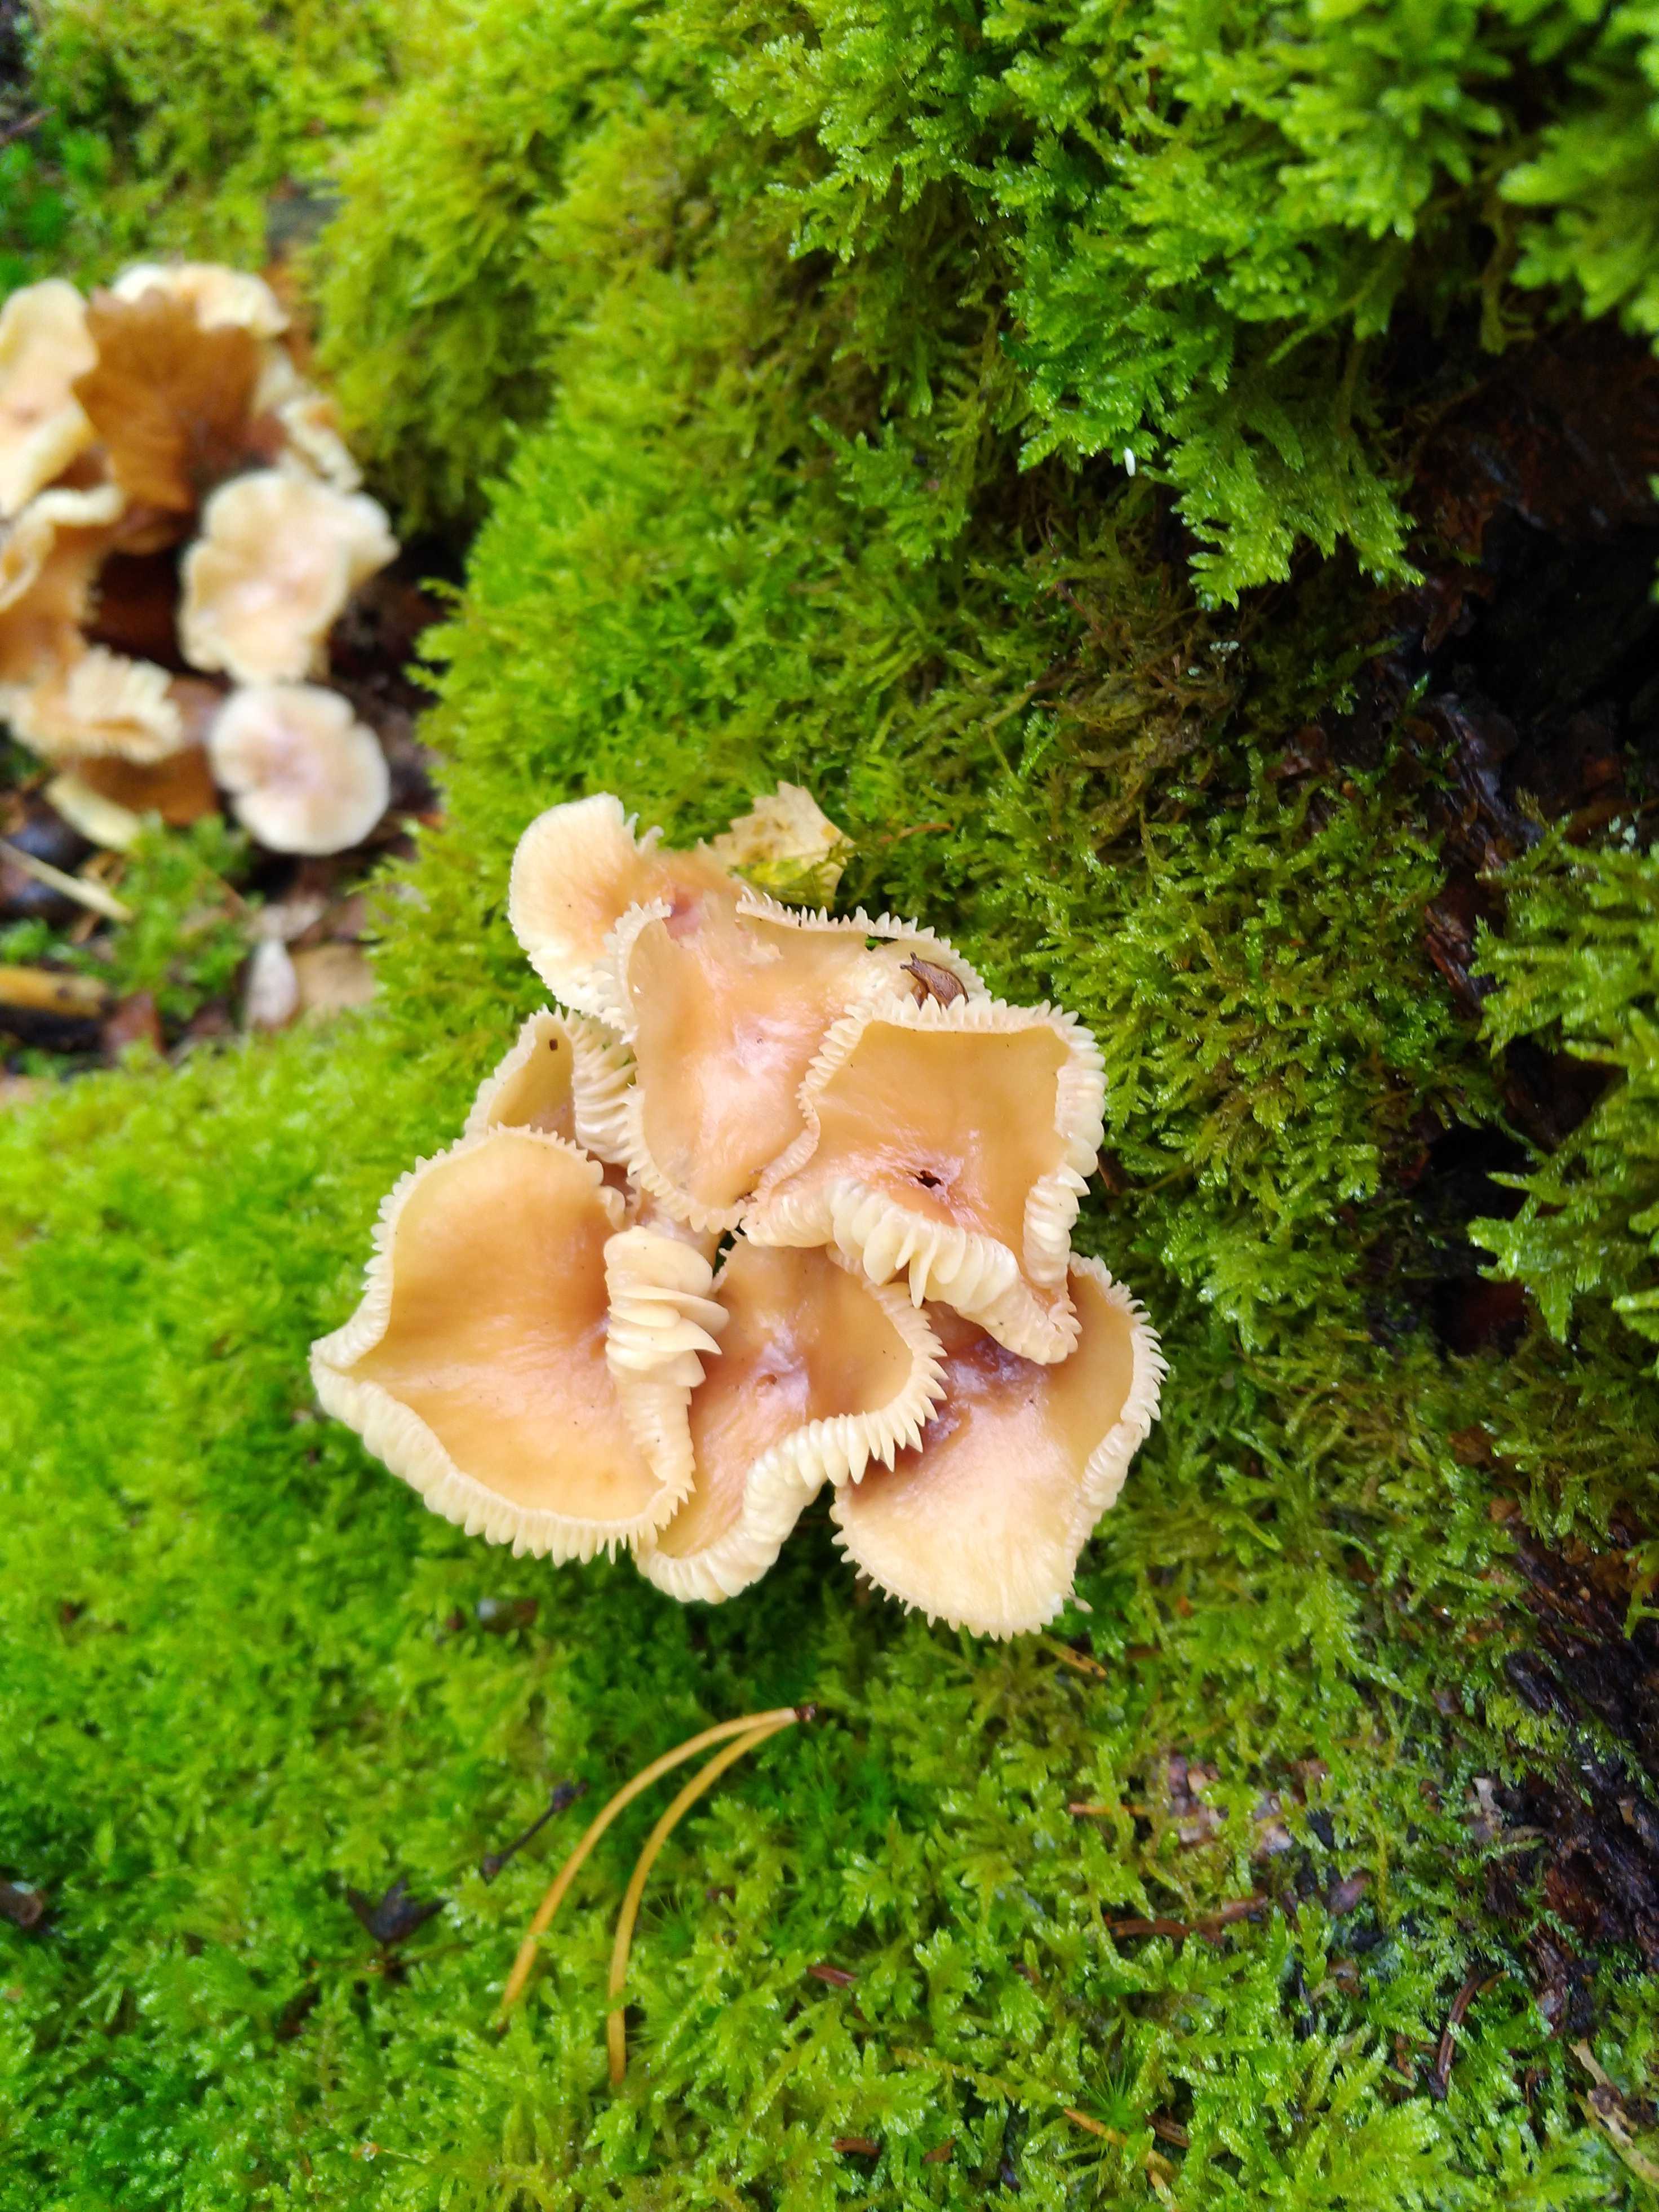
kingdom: Fungi
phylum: Basidiomycota
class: Agaricomycetes
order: Agaricales
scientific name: Agaricales
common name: champignonordenen
